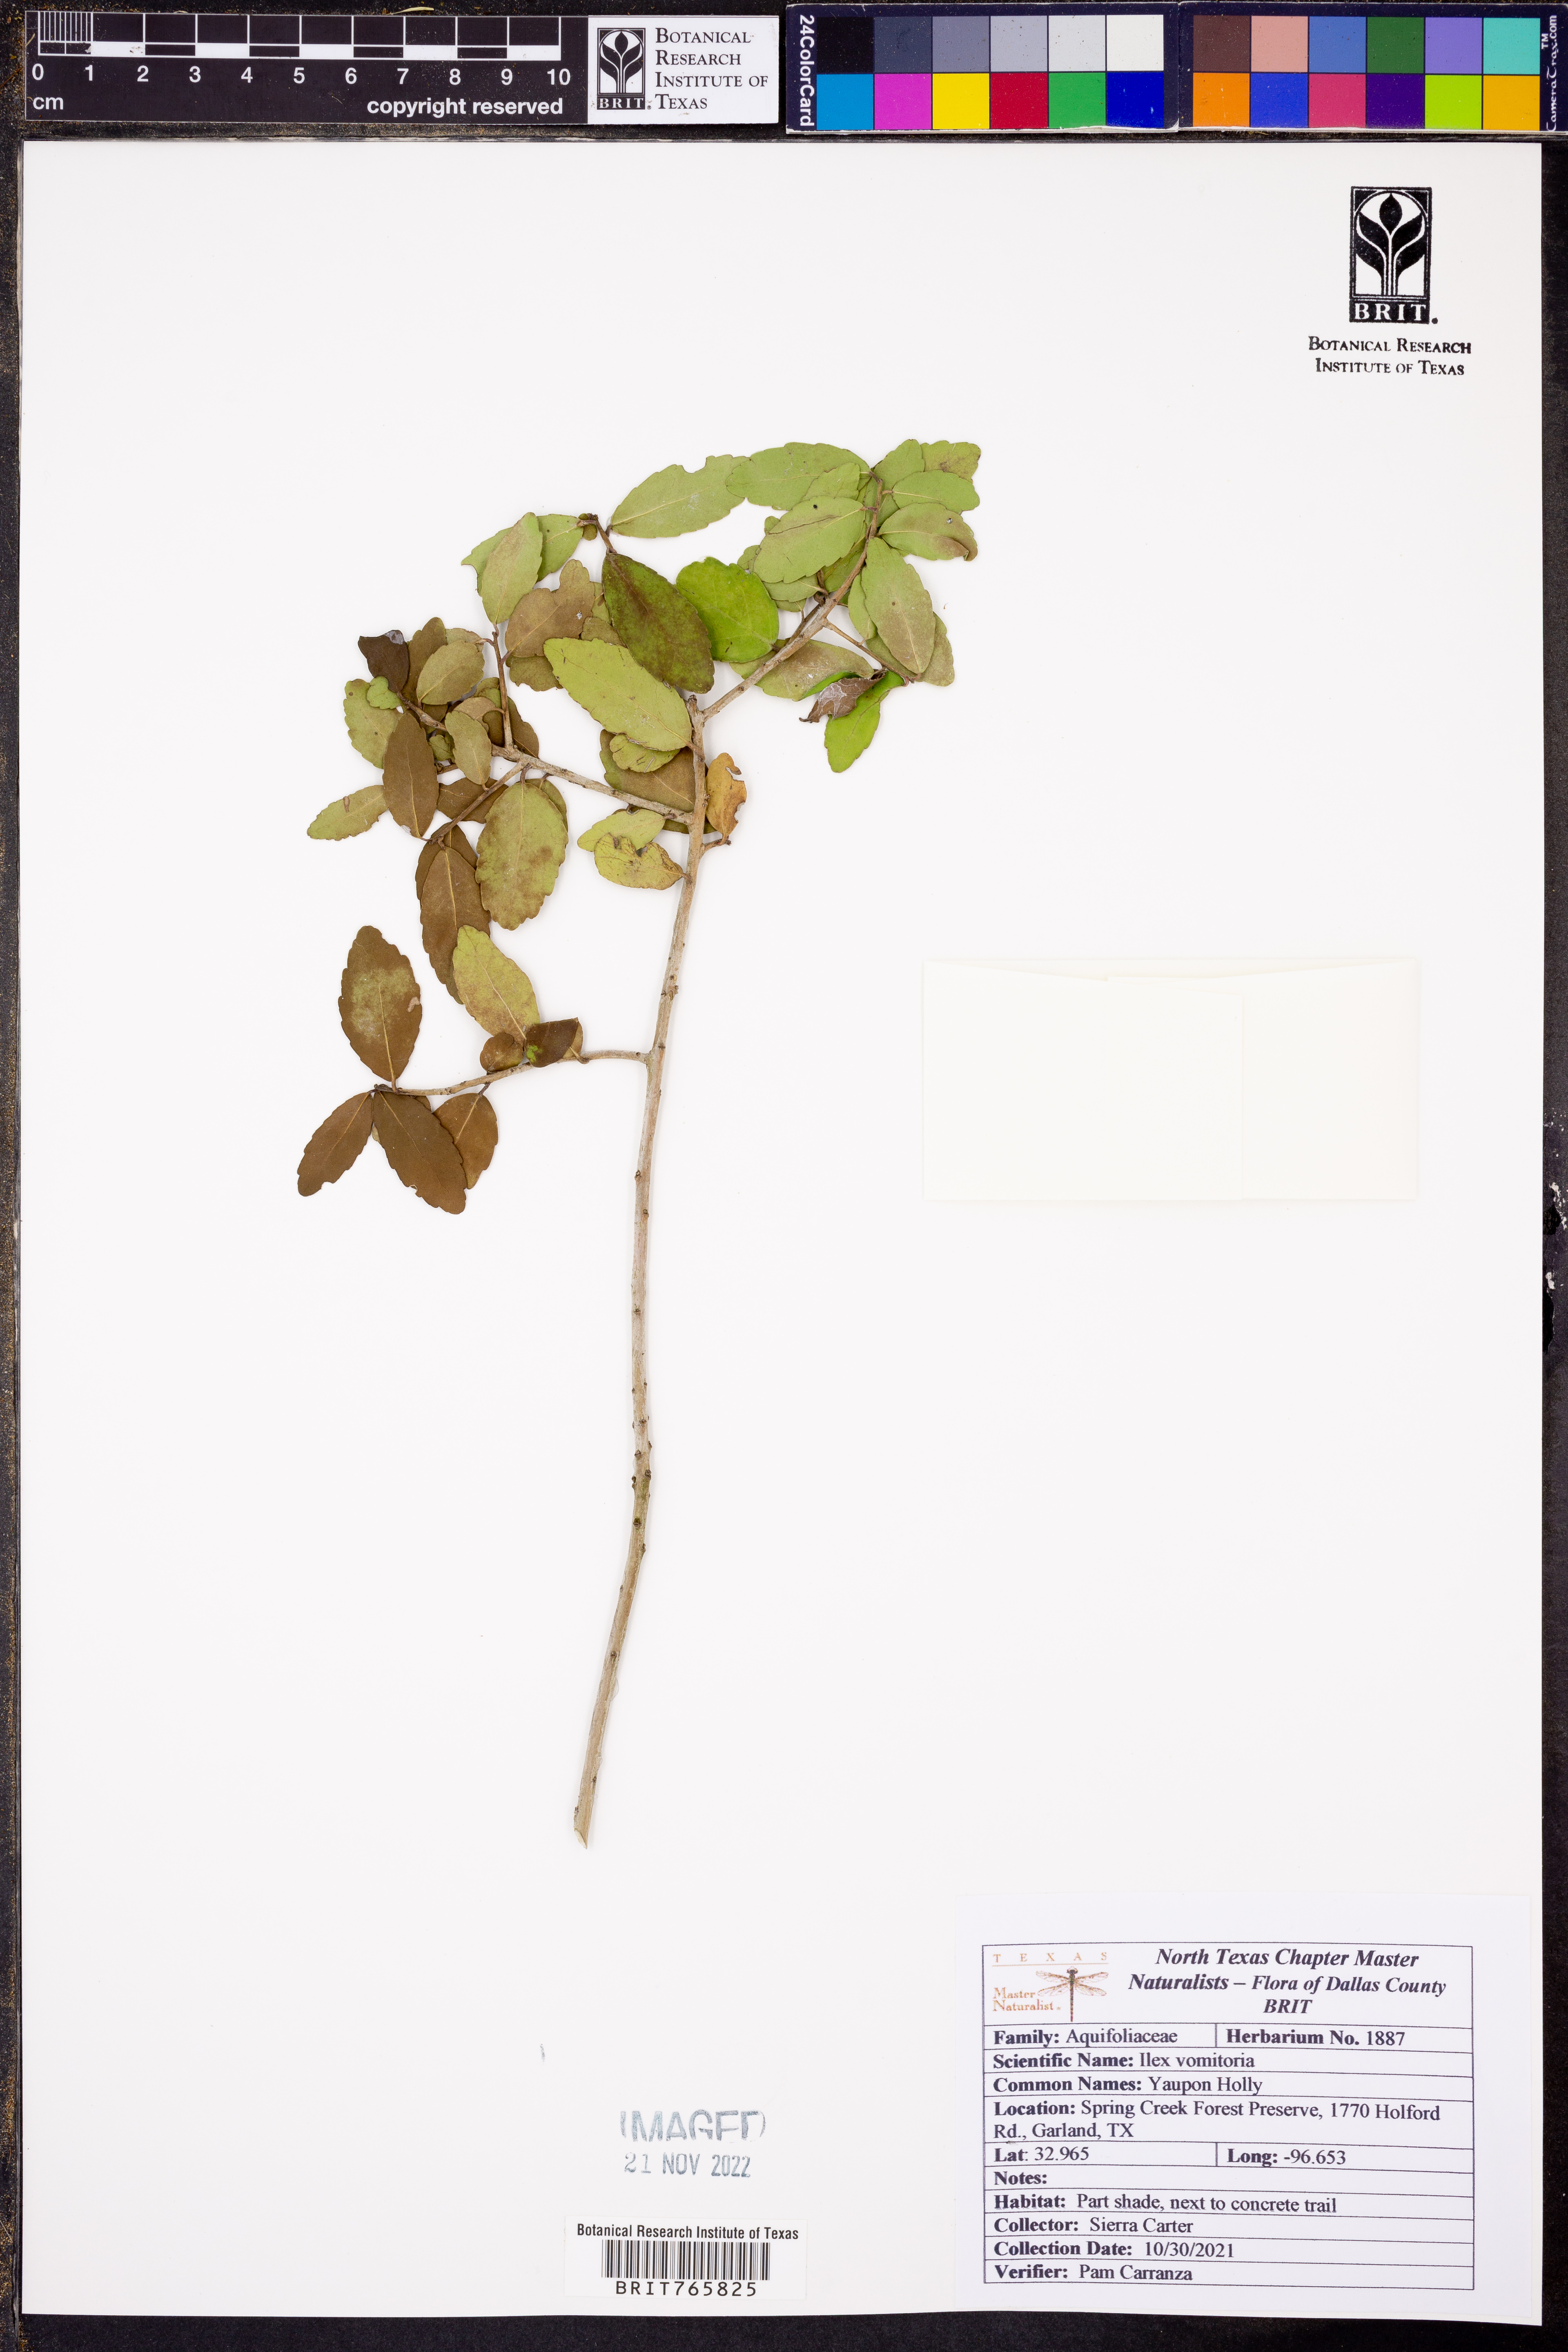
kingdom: Plantae
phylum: Tracheophyta
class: Magnoliopsida
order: Aquifoliales
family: Aquifoliaceae
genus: Ilex
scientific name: Ilex vomitoria
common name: Yaupon holly
